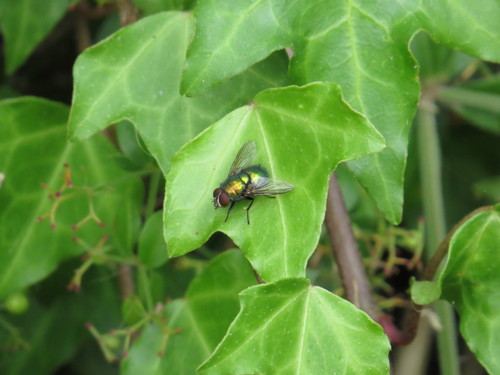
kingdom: Animalia
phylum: Arthropoda
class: Insecta
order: Diptera
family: Calliphoridae
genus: Lucilia
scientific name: Lucilia
